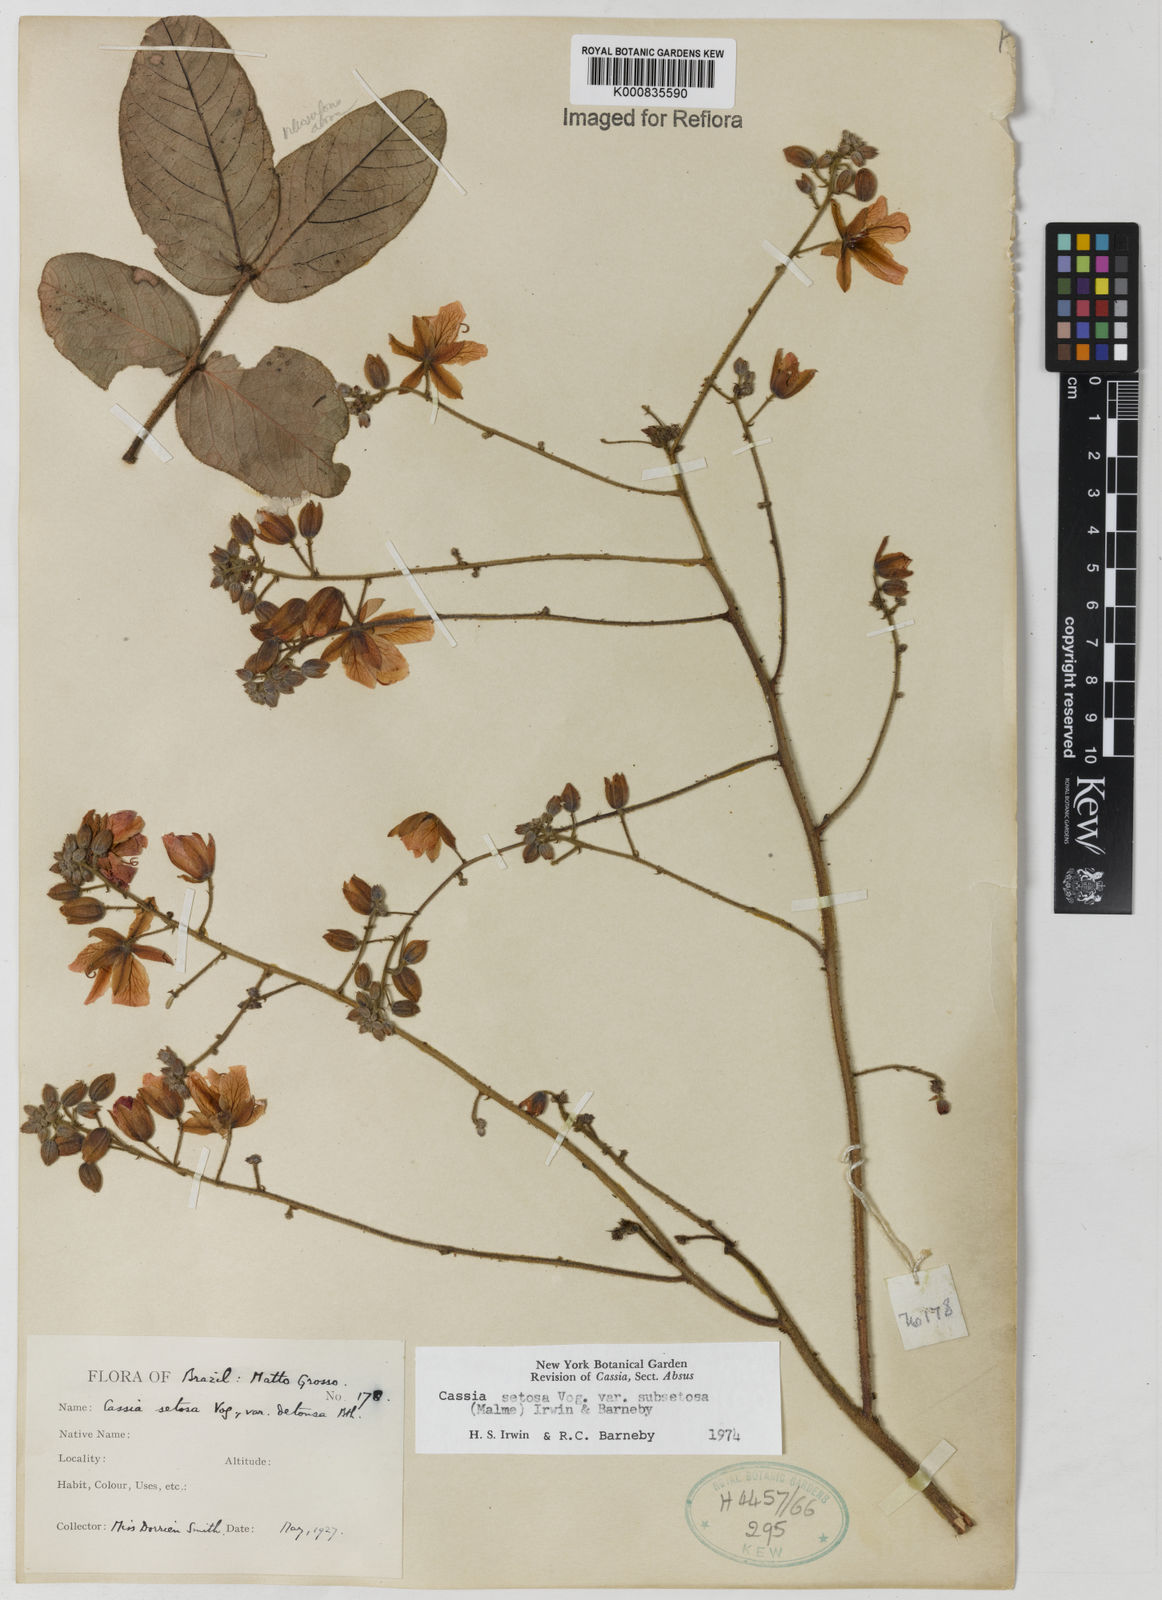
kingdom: Plantae
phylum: Tracheophyta
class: Magnoliopsida
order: Fabales
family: Fabaceae
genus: Chamaecrista
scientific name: Chamaecrista setosa
